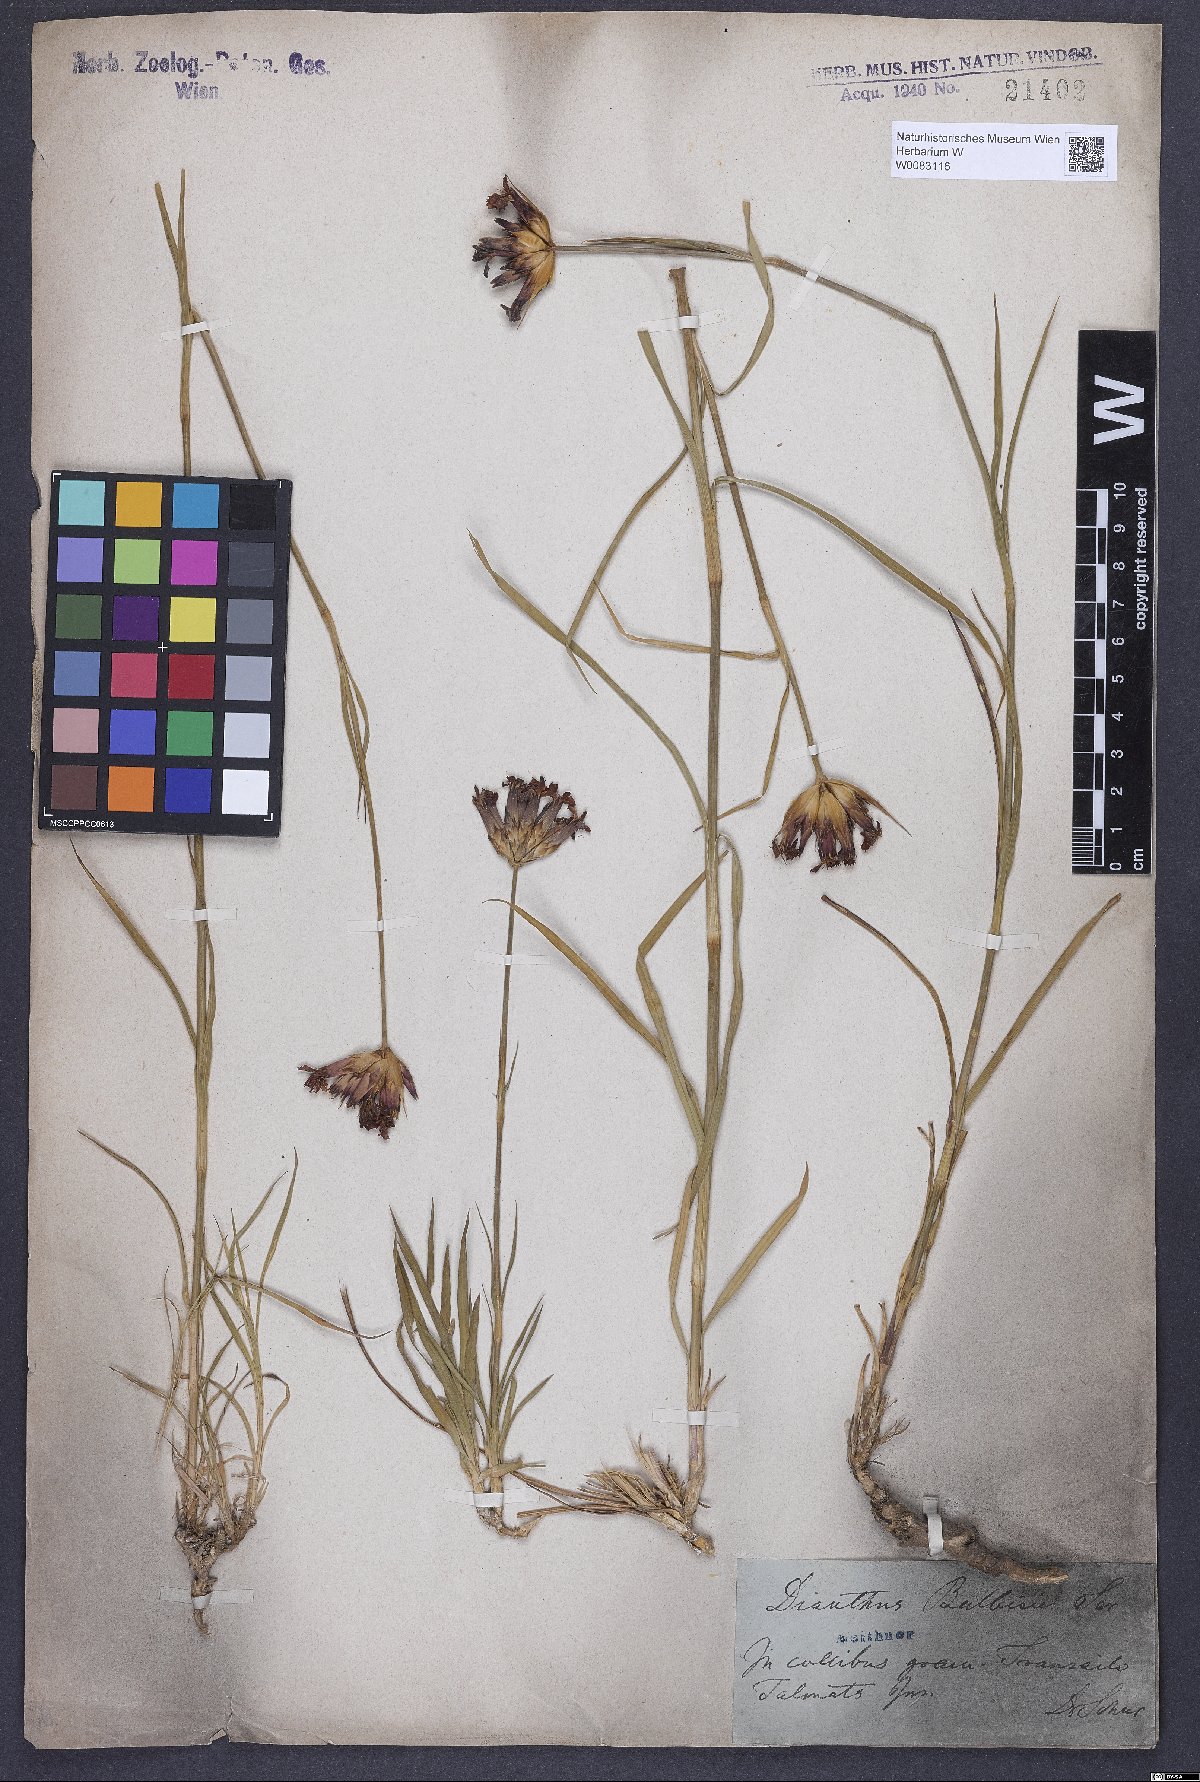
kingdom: Plantae
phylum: Tracheophyta
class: Magnoliopsida
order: Caryophyllales
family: Caryophyllaceae
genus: Dianthus
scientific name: Dianthus crassipes
